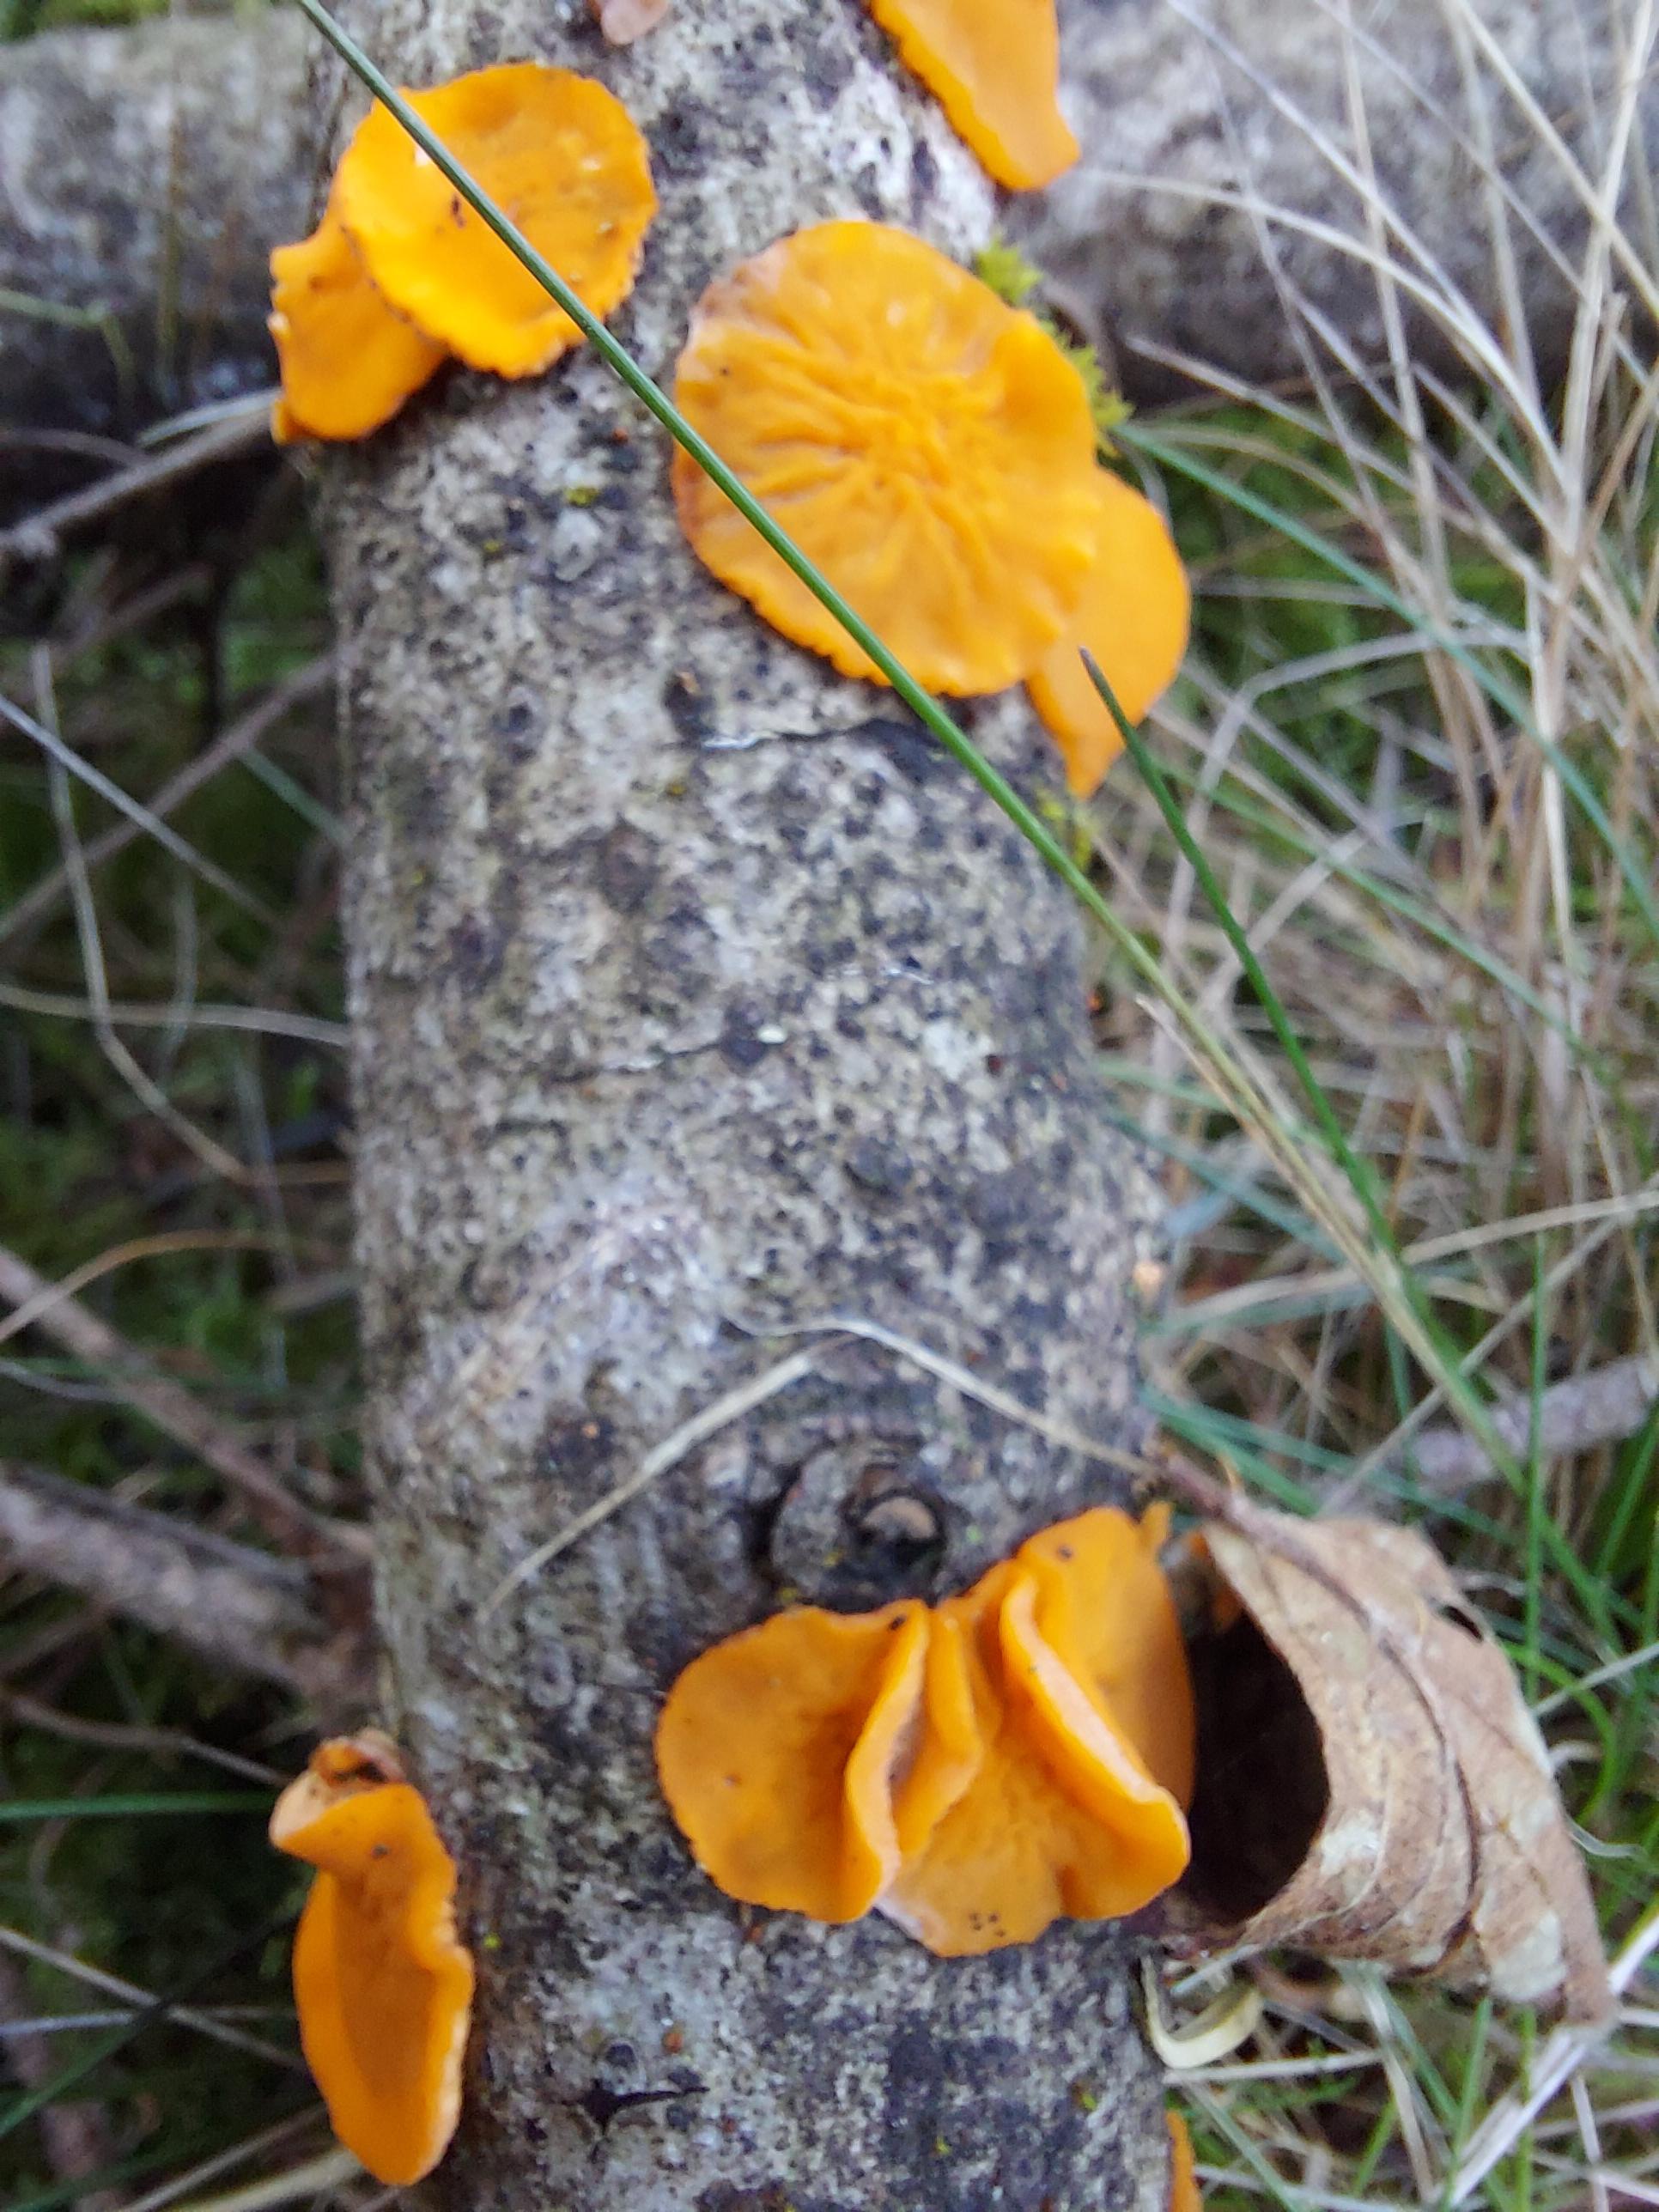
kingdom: Fungi
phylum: Ascomycota
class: Pezizomycetes
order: Pezizales
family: Sarcoscyphaceae
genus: Pithya
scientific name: Pithya vulgaris
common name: stor dukatbæger
